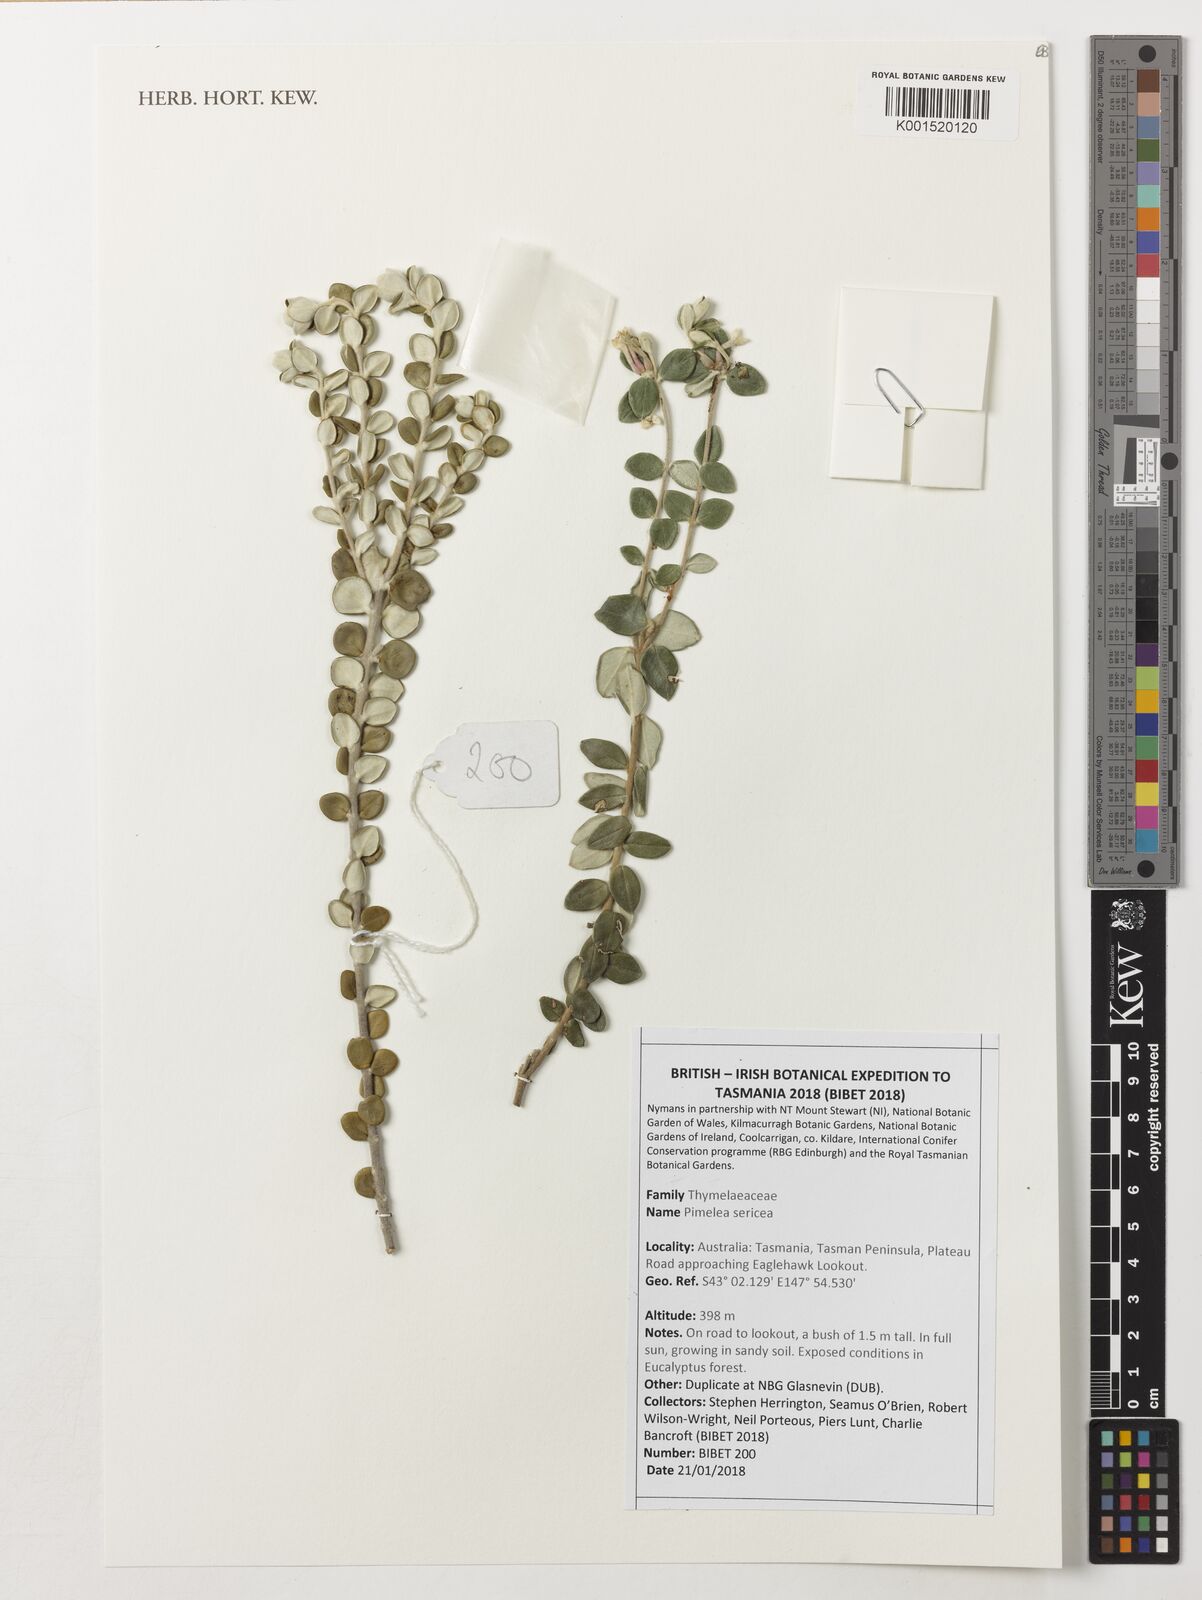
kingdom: Plantae
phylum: Tracheophyta
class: Magnoliopsida
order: Malvales
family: Thymelaeaceae
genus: Pimelea
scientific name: Pimelea sericea
